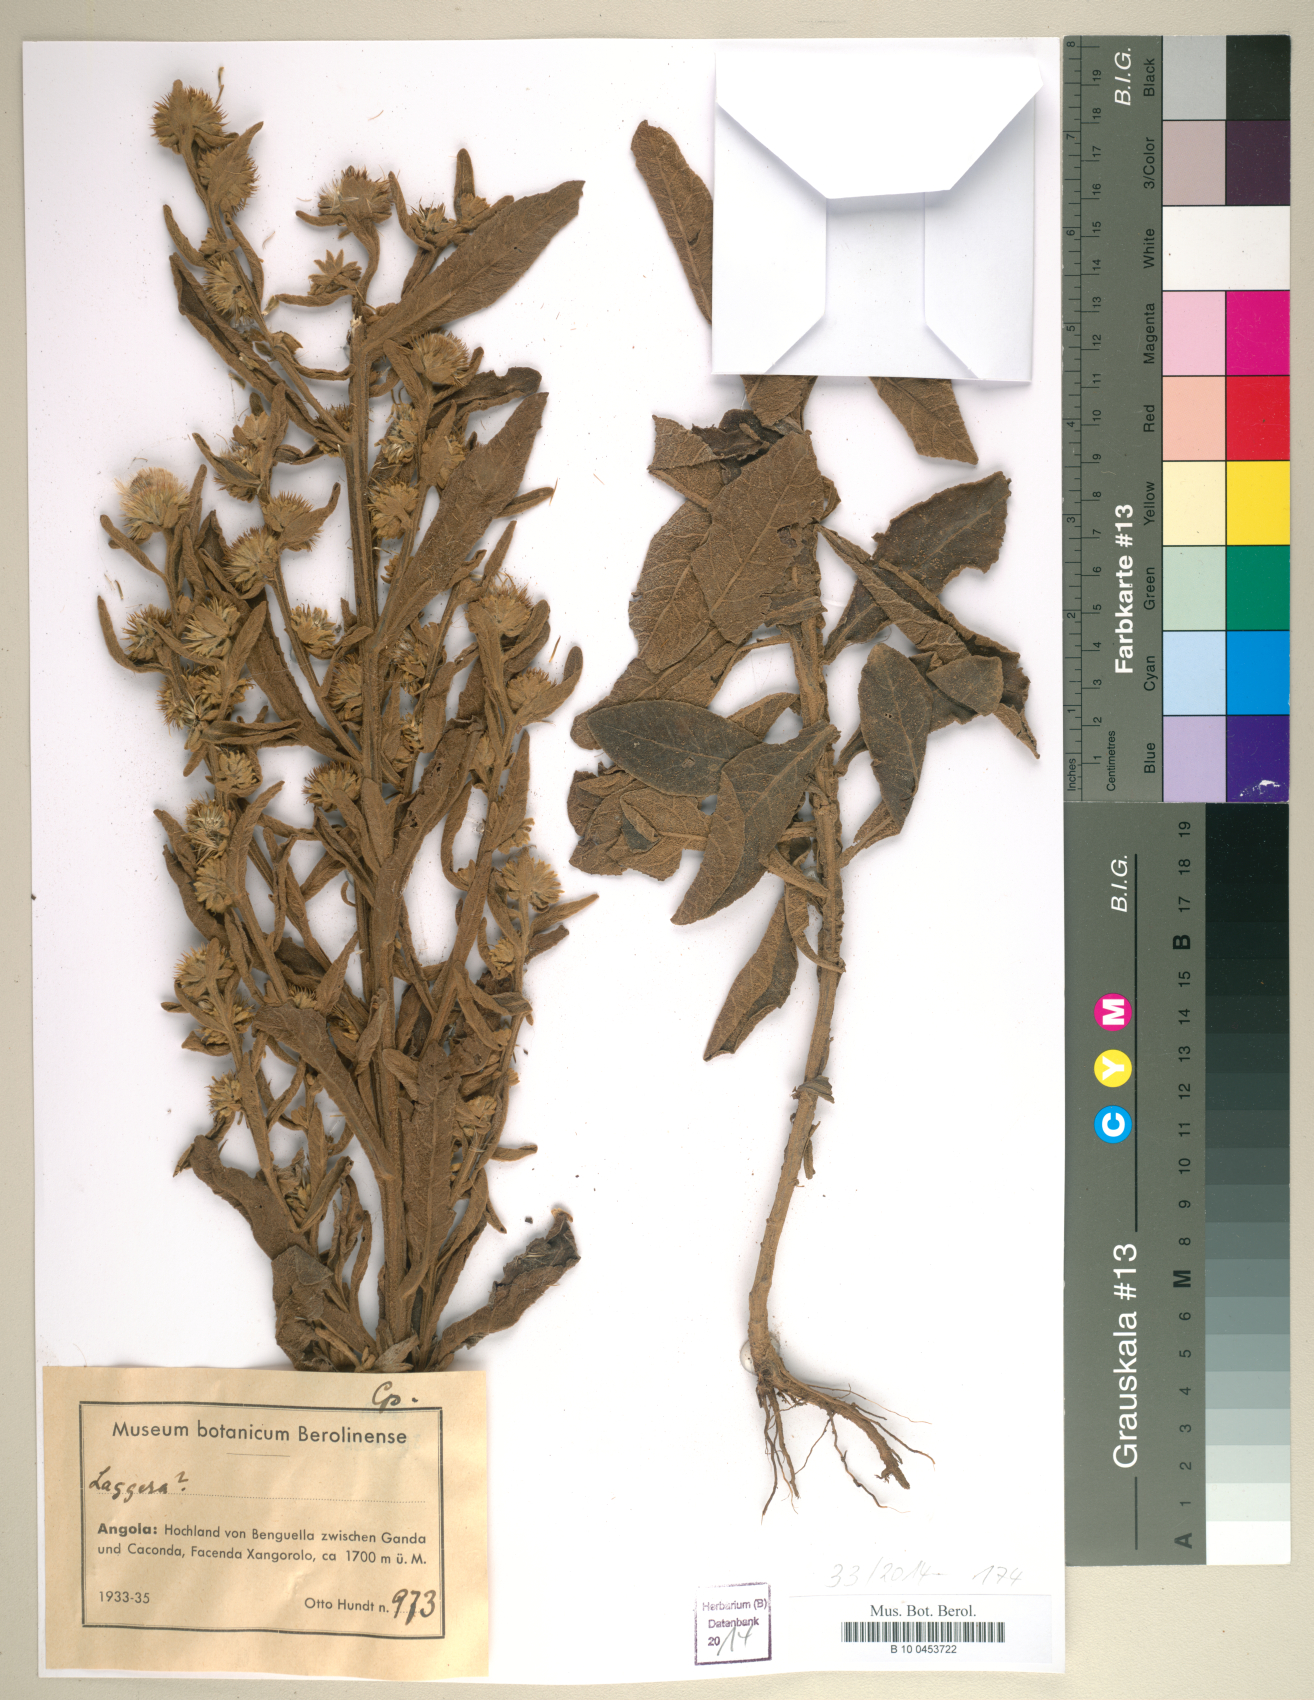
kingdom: Plantae
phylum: Tracheophyta
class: Magnoliopsida
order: Asterales
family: Asteraceae
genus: Laggera
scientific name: Laggera
